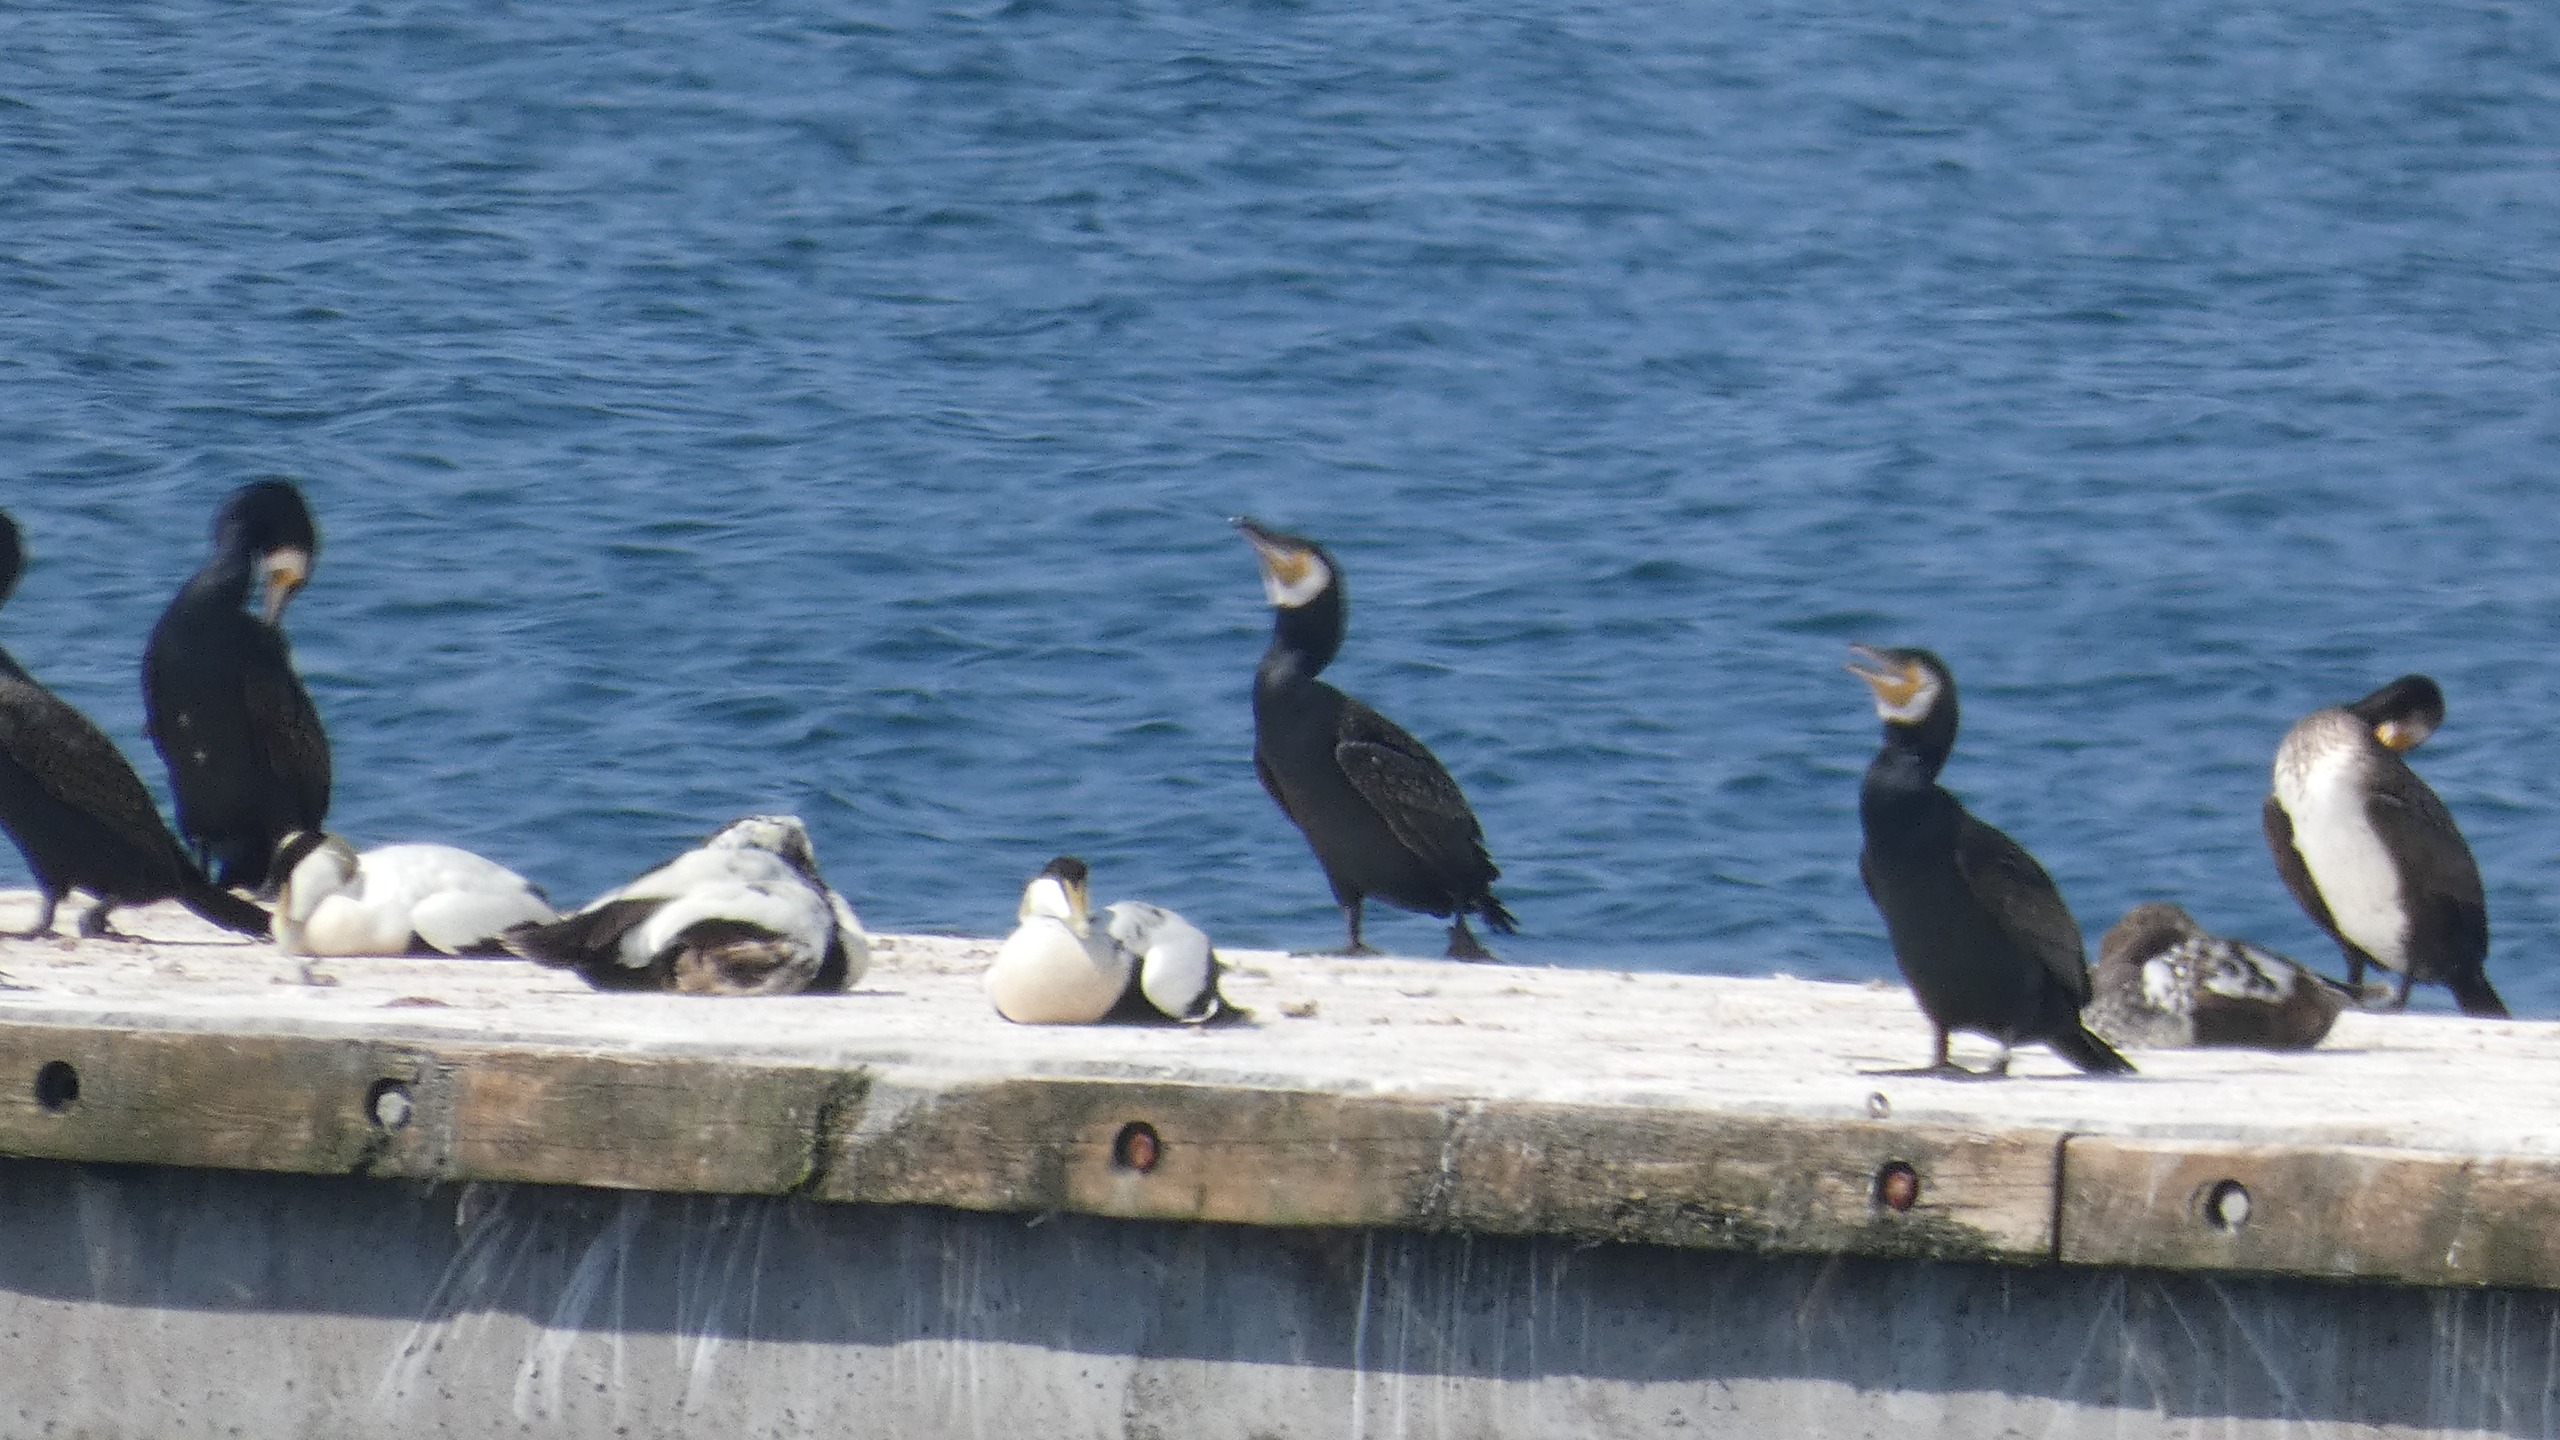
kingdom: Animalia
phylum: Chordata
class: Aves
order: Anseriformes
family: Anatidae
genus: Somateria
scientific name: Somateria mollissima
